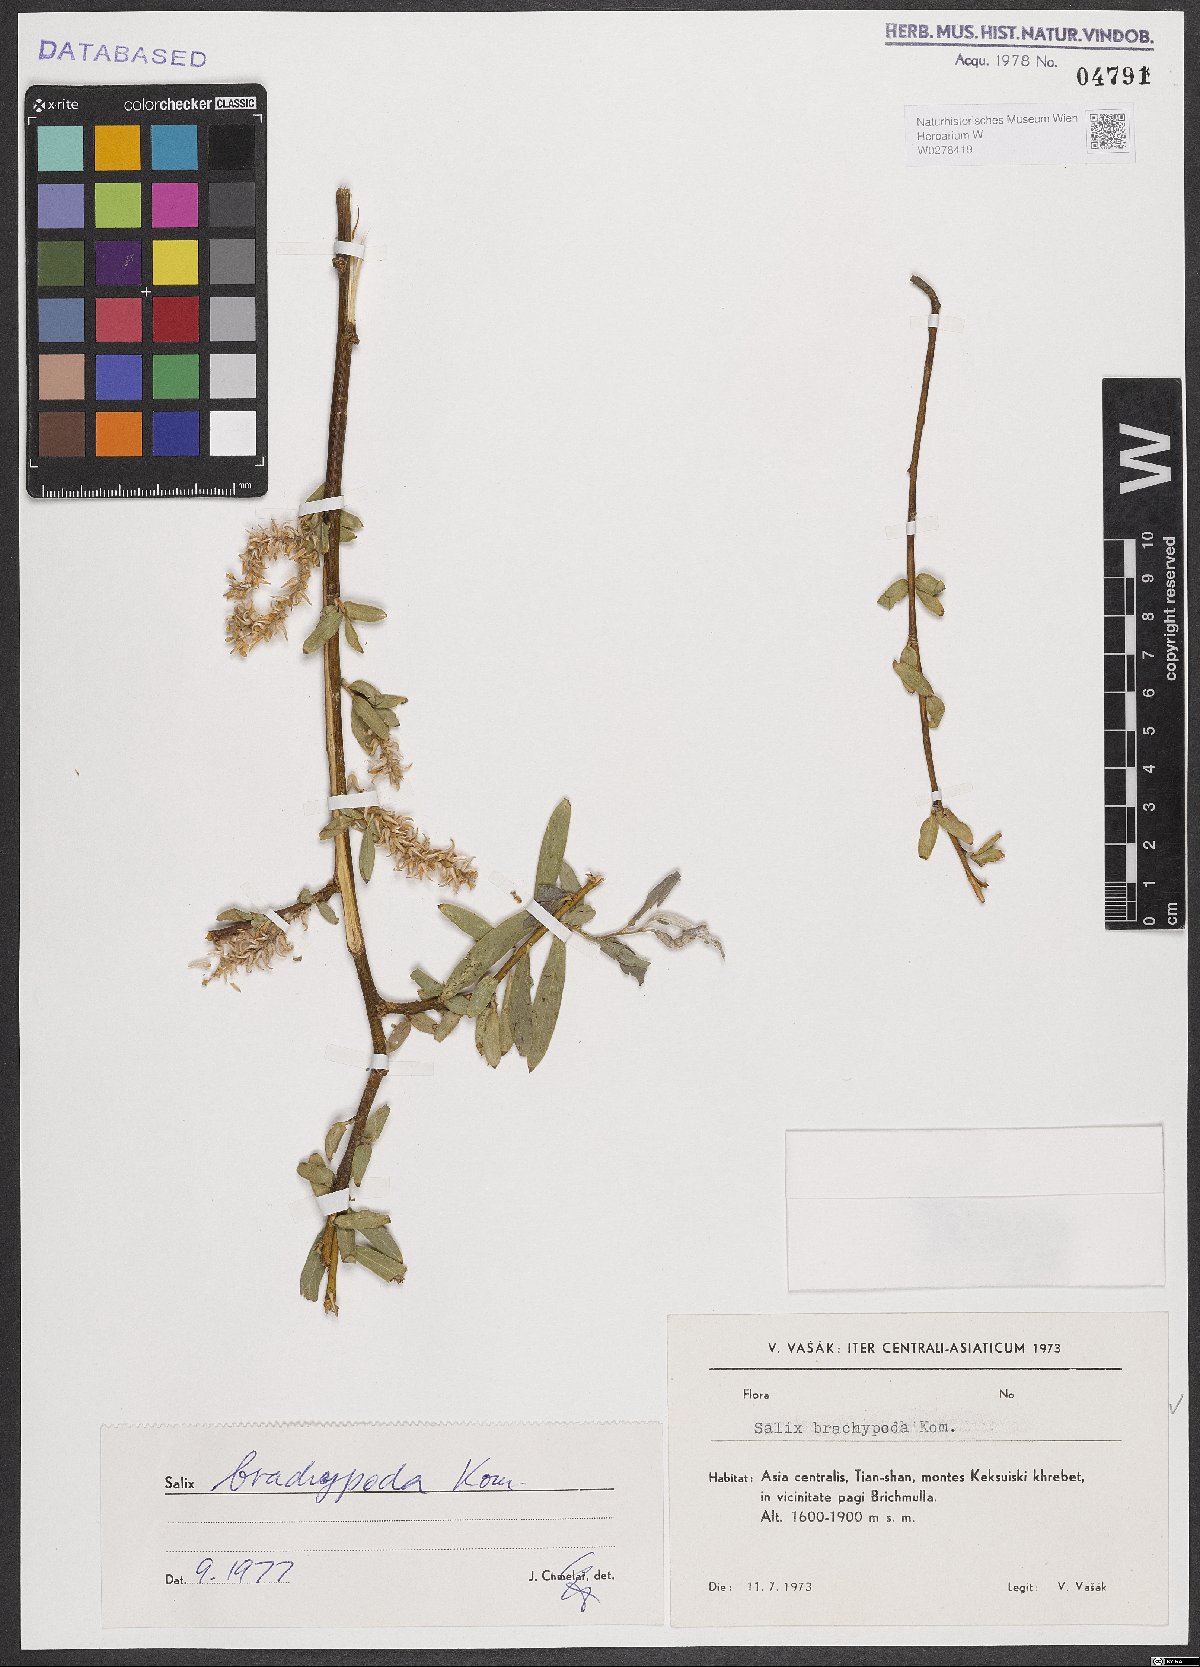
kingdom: Plantae
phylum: Tracheophyta
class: Magnoliopsida
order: Malpighiales
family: Salicaceae
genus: Salix
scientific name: Salix brachypoda
